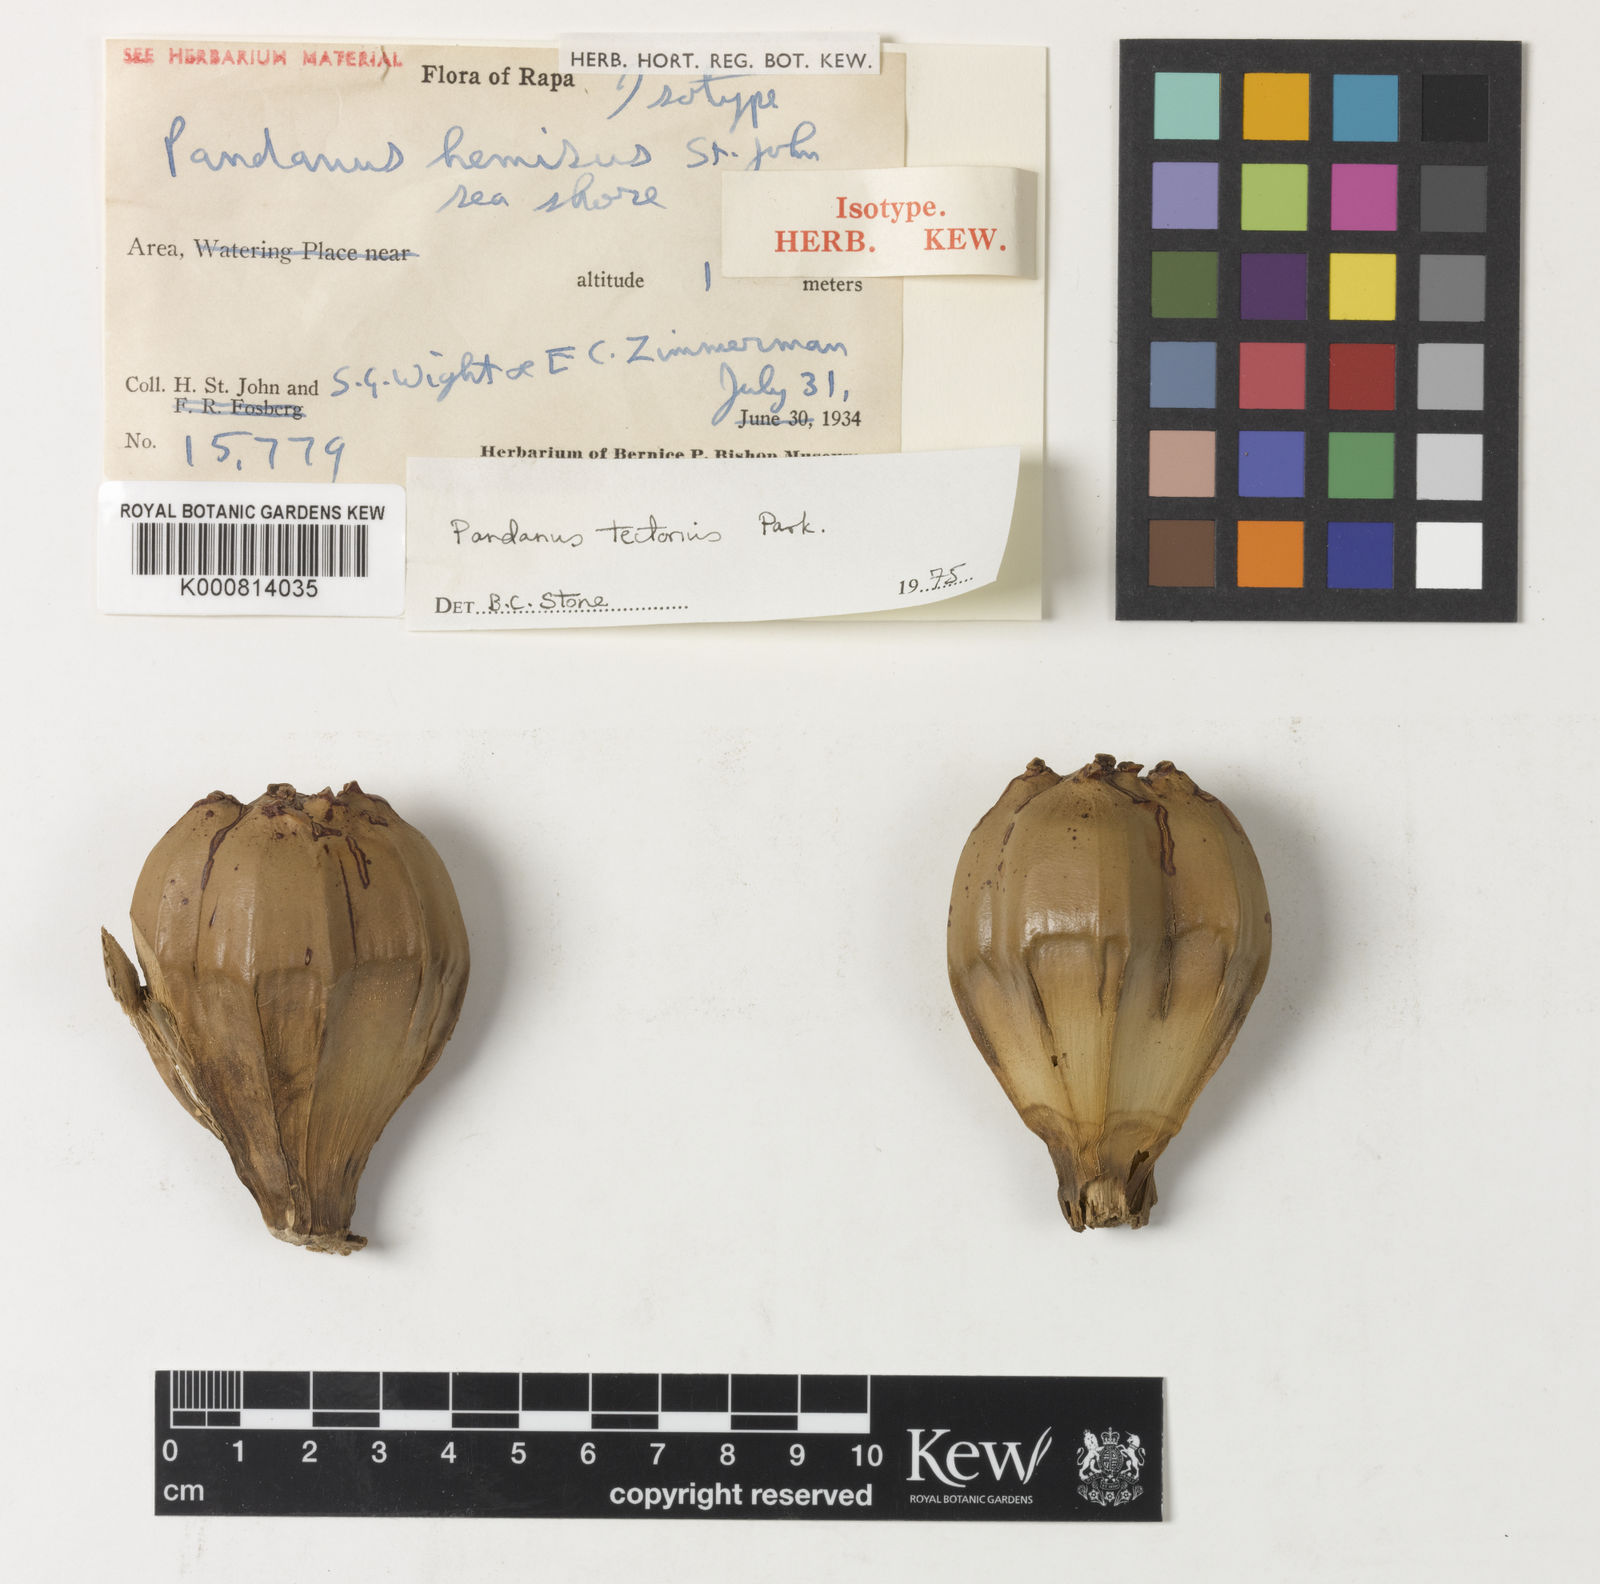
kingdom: Plantae
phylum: Tracheophyta
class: Liliopsida
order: Pandanales
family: Pandanaceae
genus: Pandanus
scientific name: Pandanus
